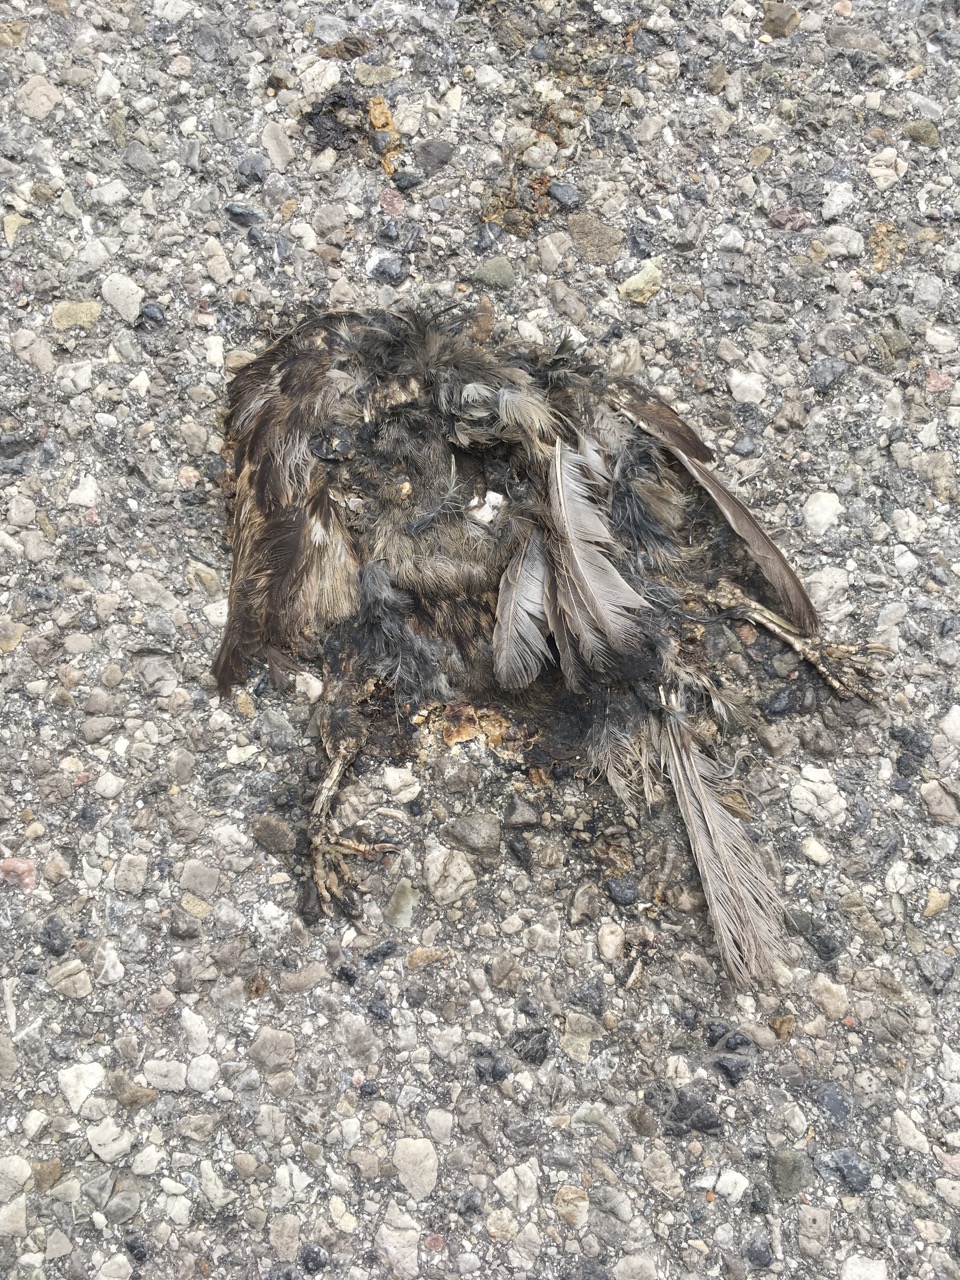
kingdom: Animalia
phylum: Chordata
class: Aves
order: Passeriformes
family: Passeridae
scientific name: Passeridae
